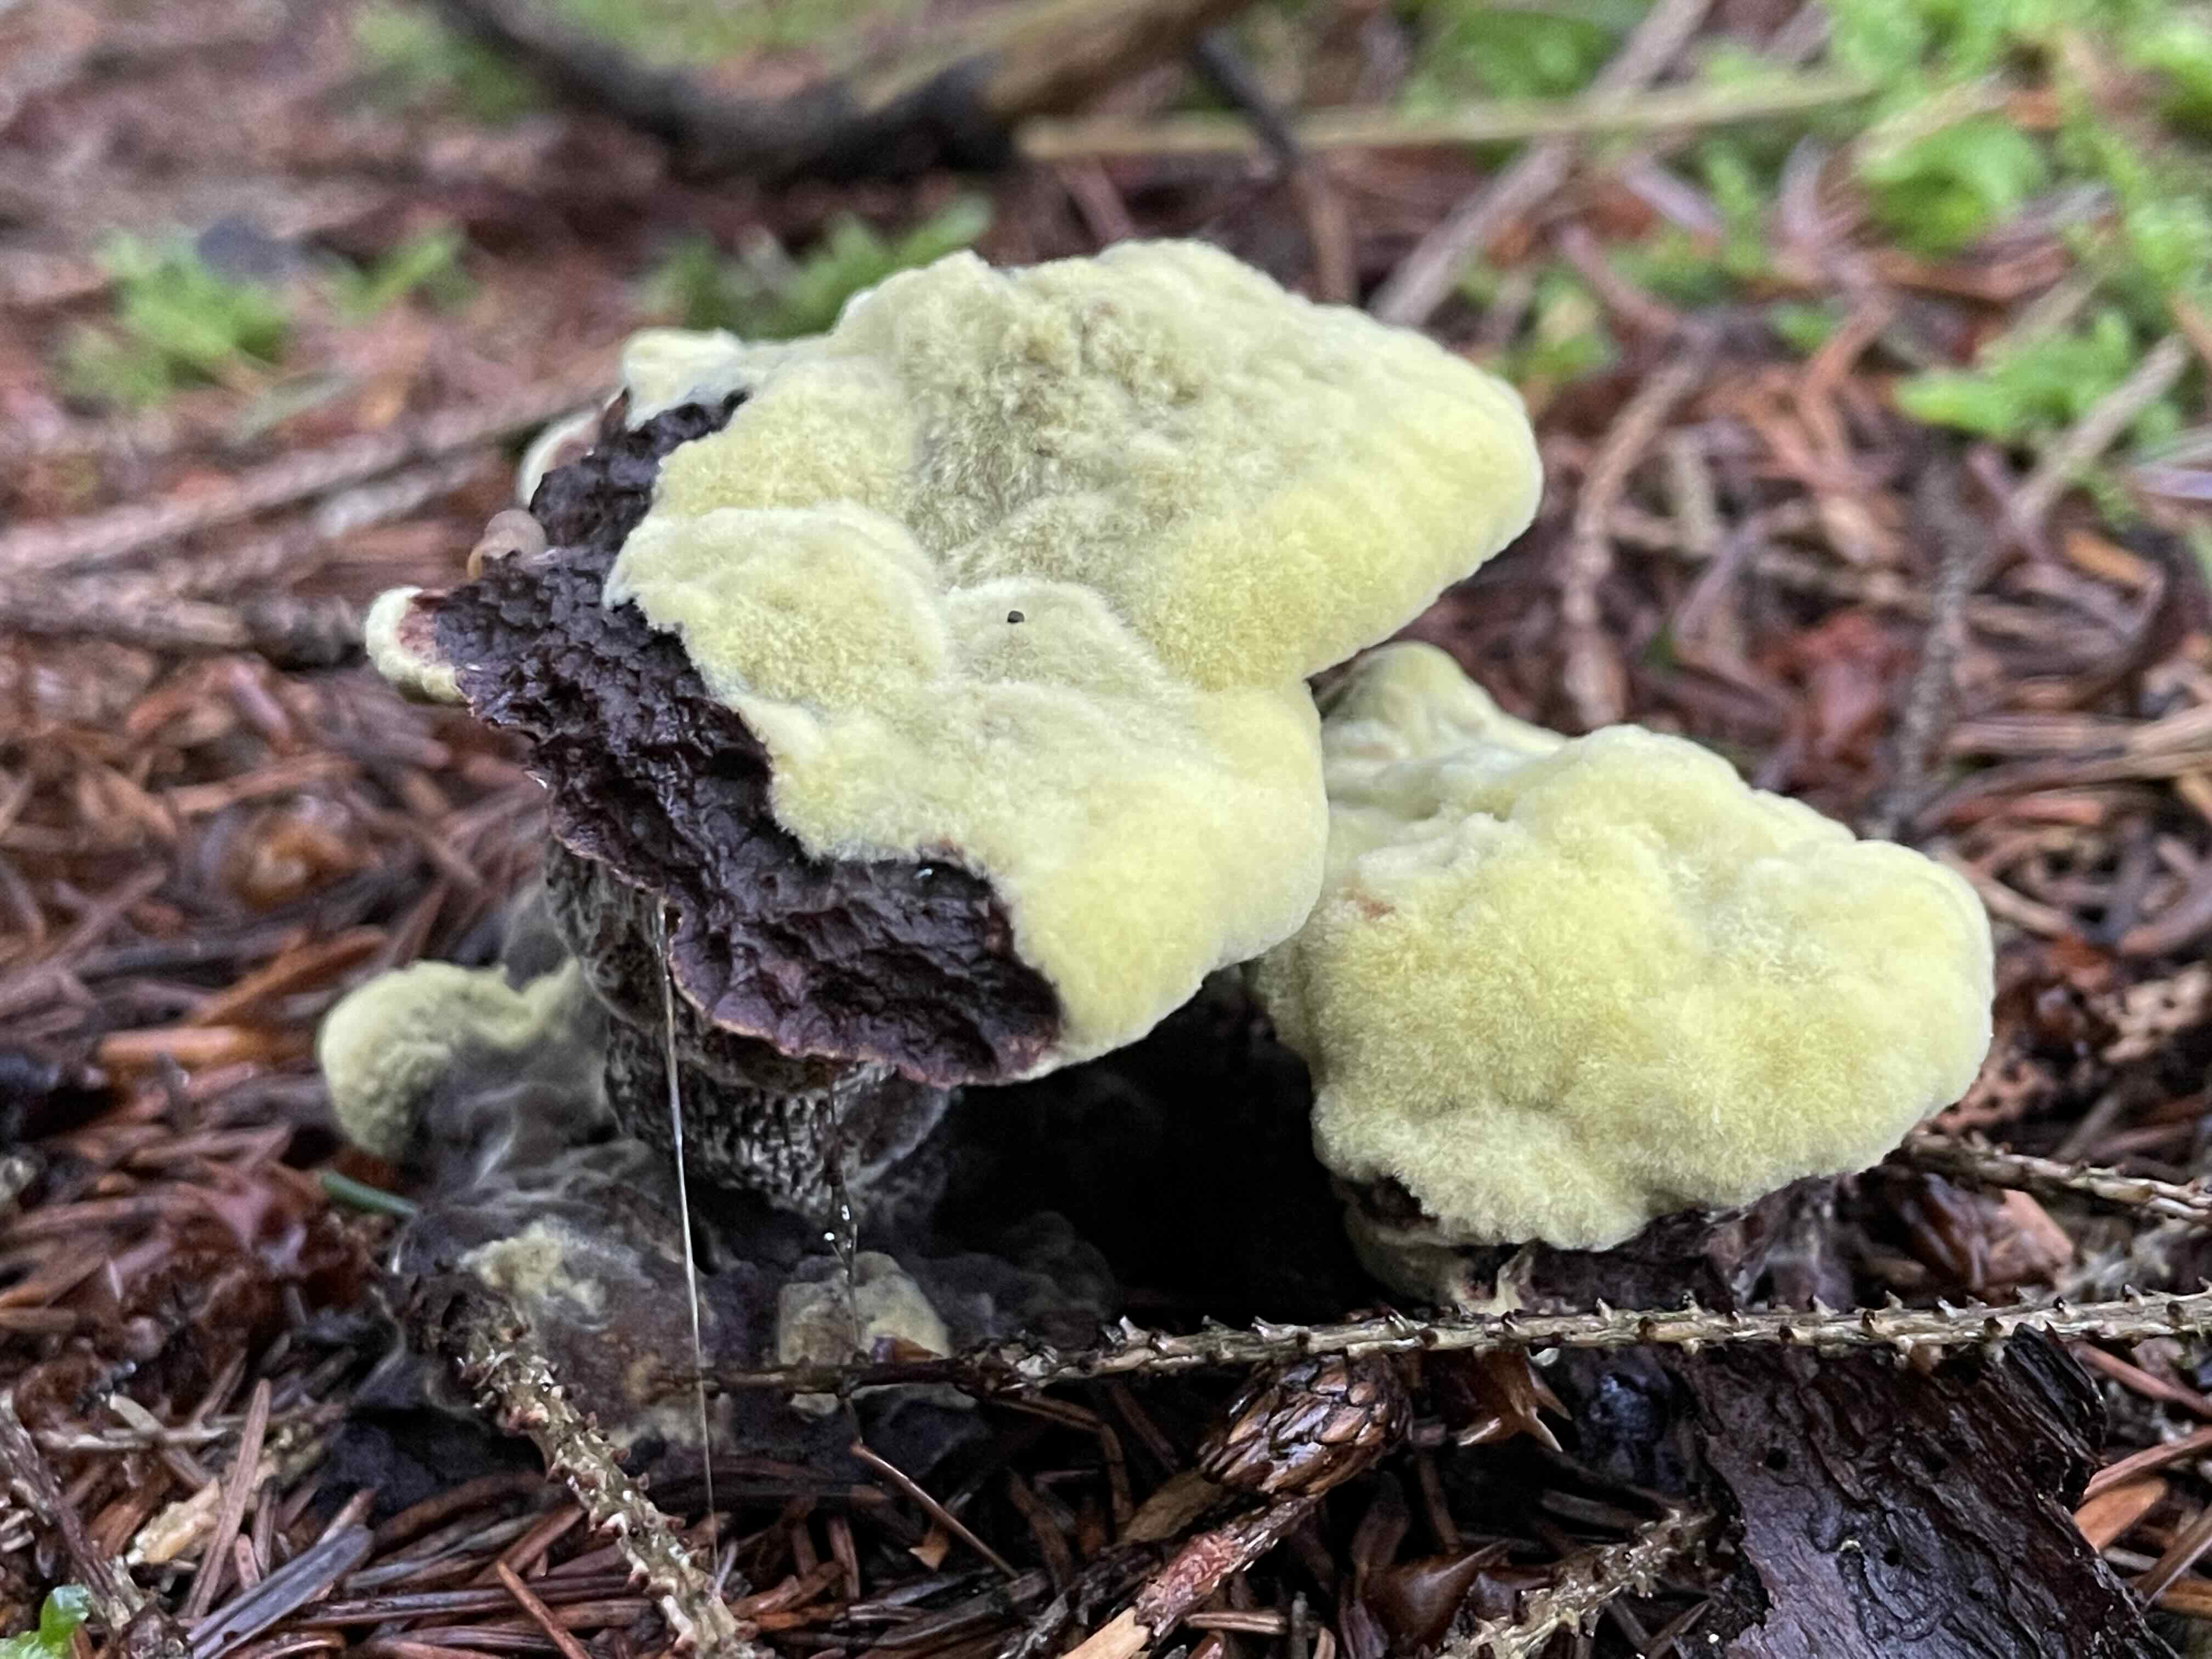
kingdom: Fungi
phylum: Basidiomycota
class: Agaricomycetes
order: Polyporales
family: Laetiporaceae
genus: Phaeolus
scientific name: Phaeolus schweinitzii
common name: brunporesvamp
